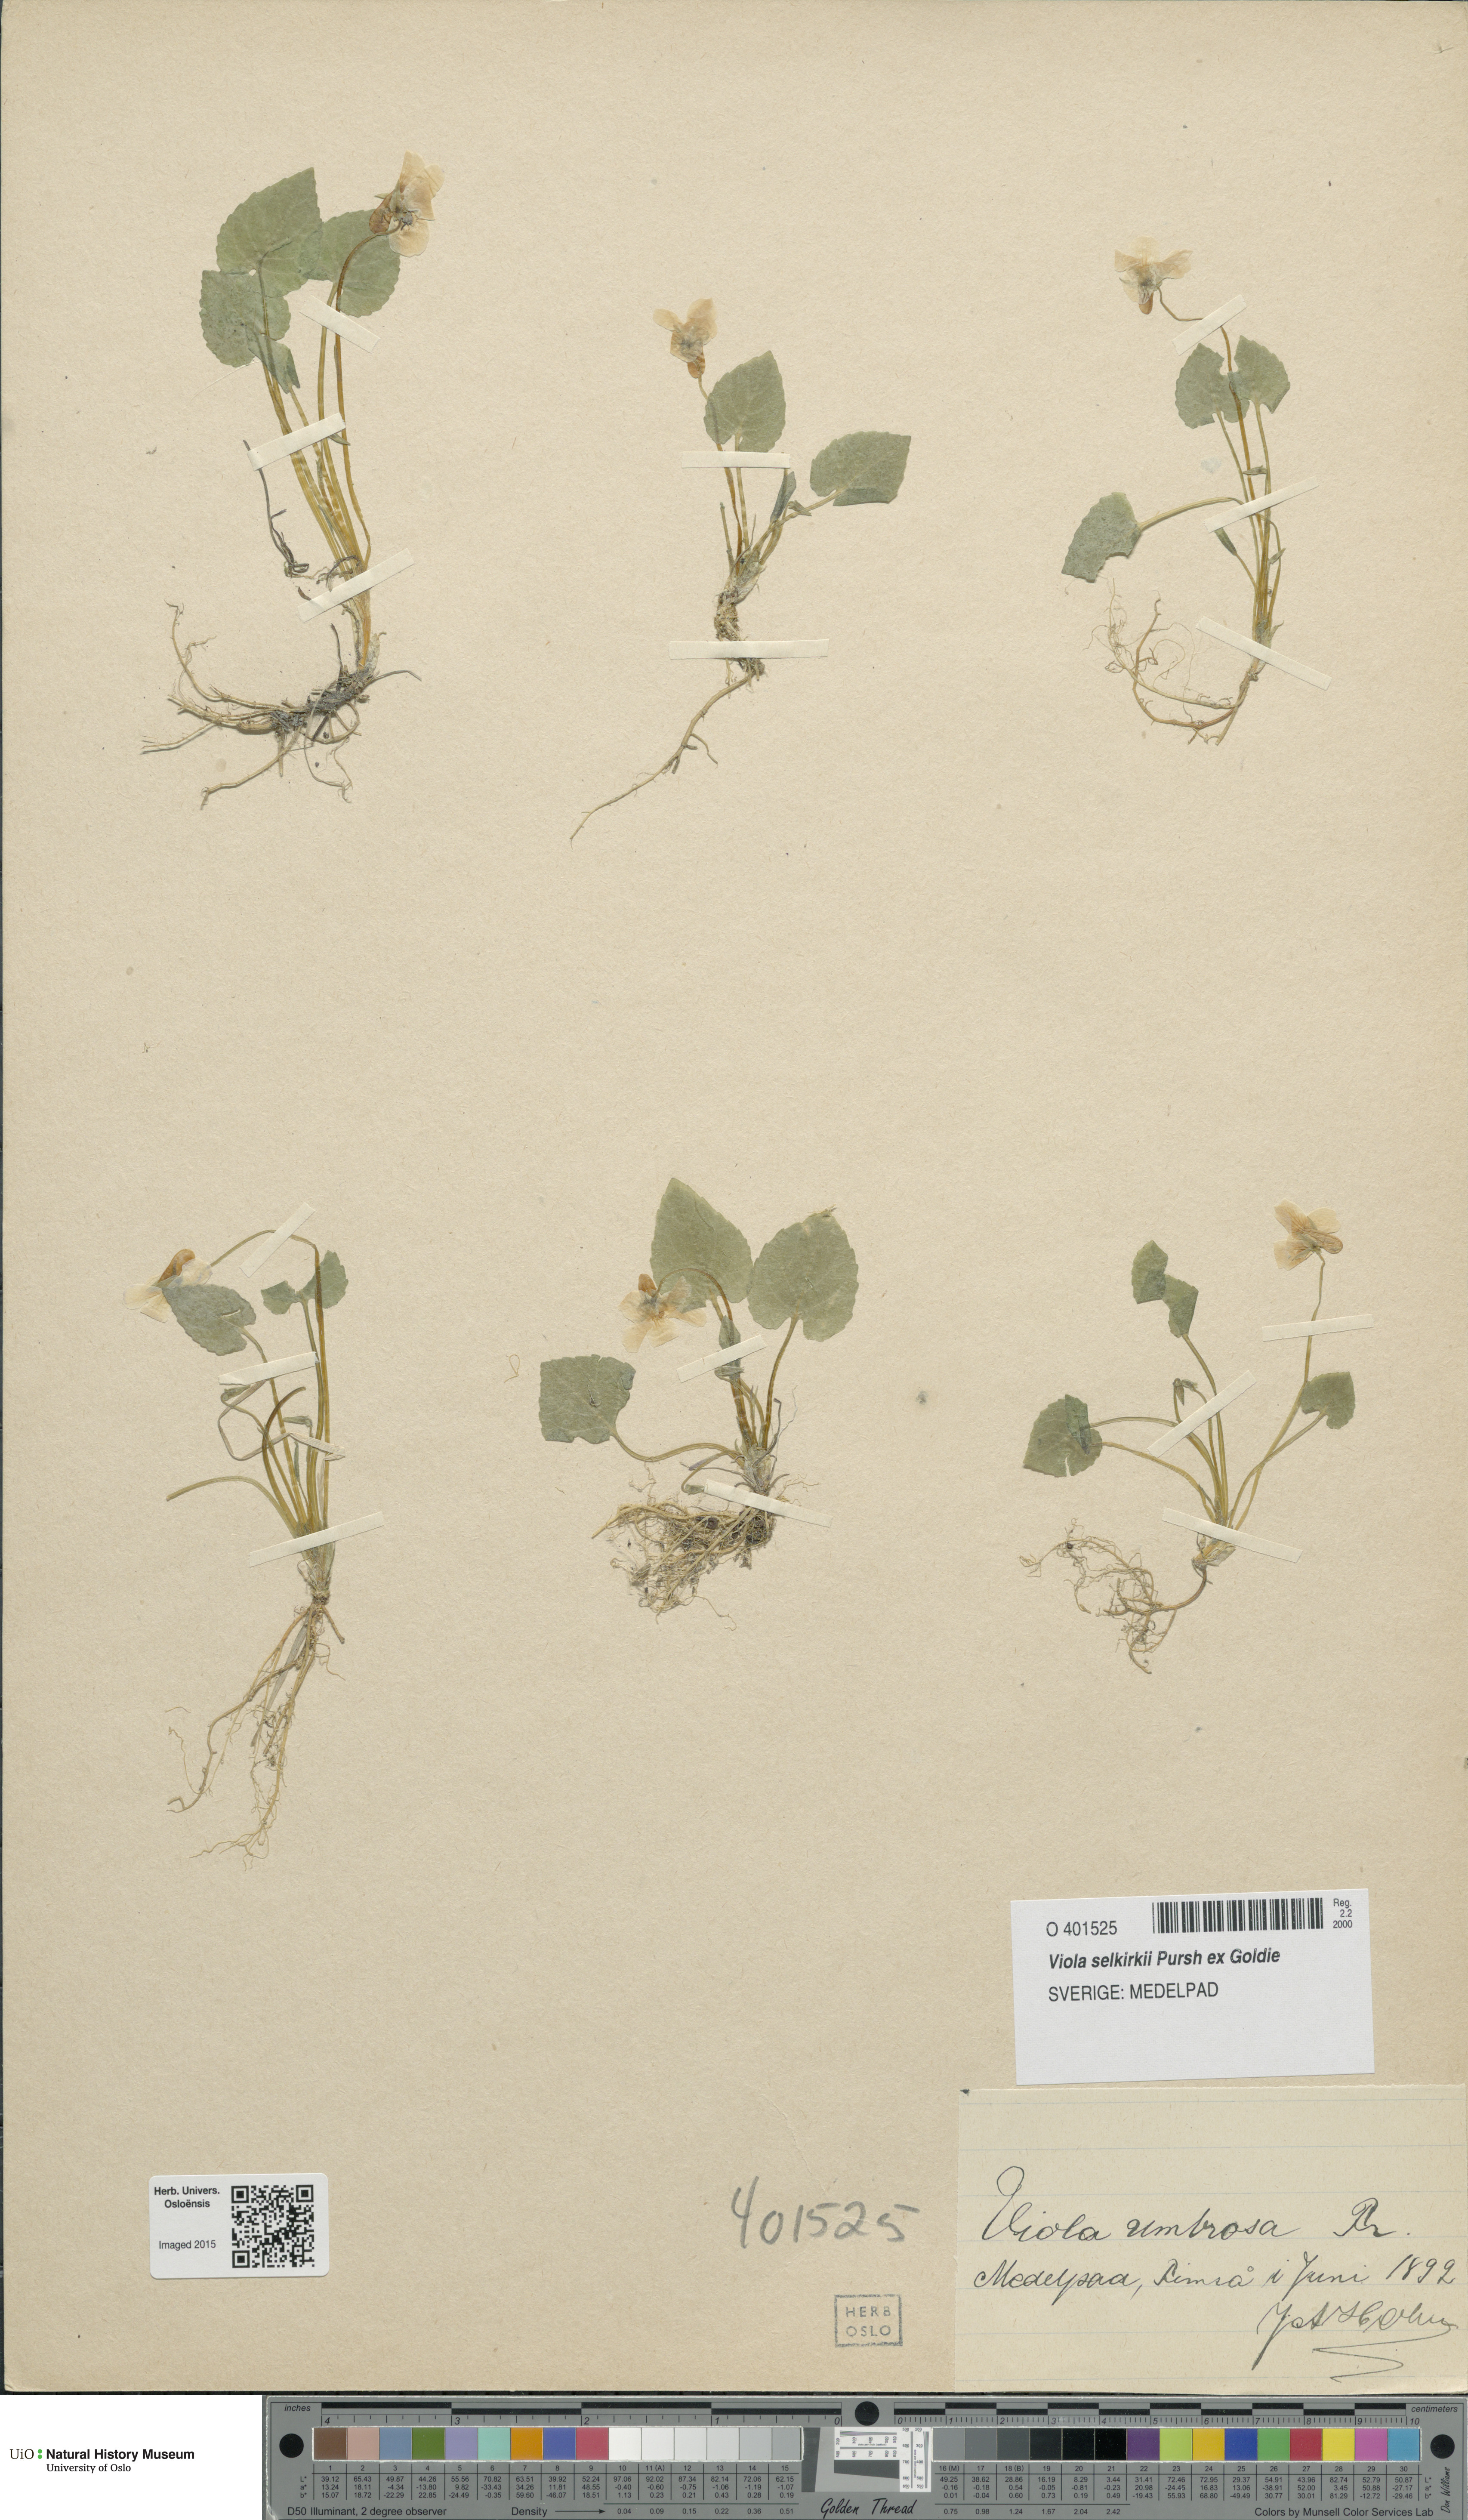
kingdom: Plantae
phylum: Tracheophyta
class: Magnoliopsida
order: Malpighiales
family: Violaceae
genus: Viola
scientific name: Viola selkirkii
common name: Selkirk's violet
